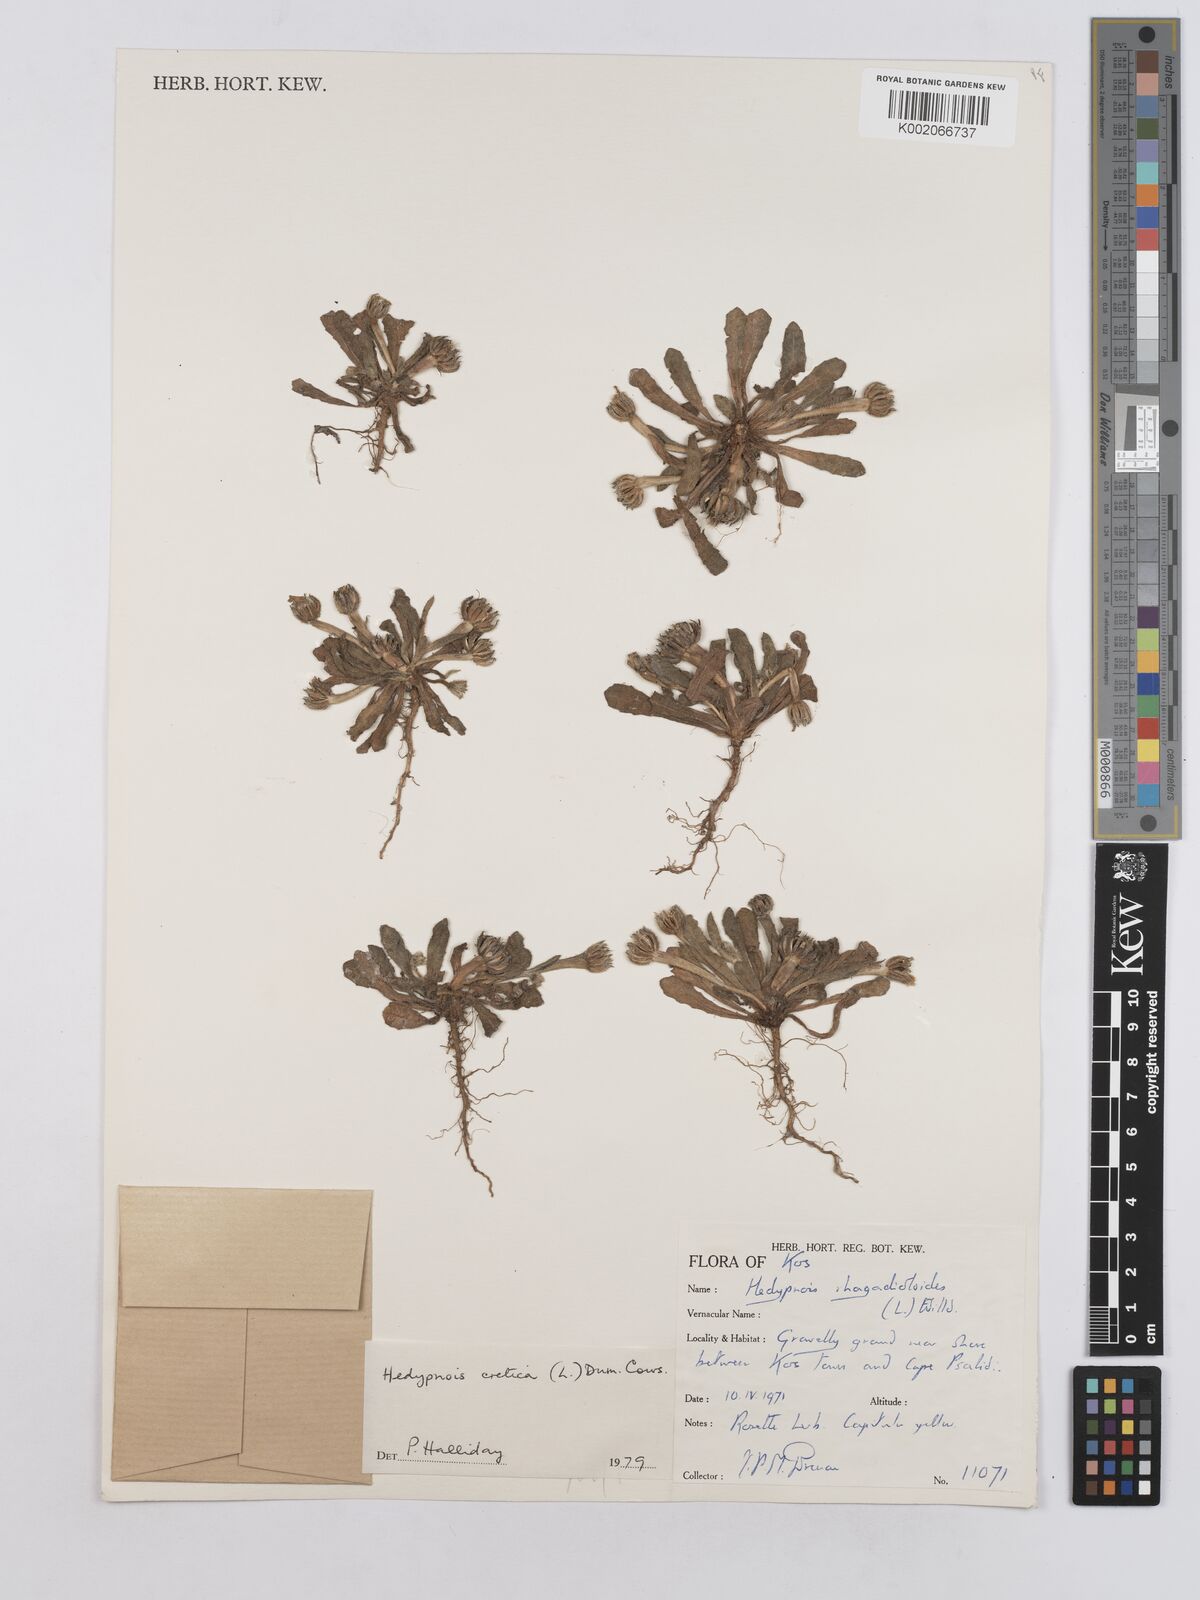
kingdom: Plantae
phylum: Tracheophyta
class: Magnoliopsida
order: Asterales
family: Asteraceae
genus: Hedypnois
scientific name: Hedypnois cretica
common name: Scaly hawkbit
